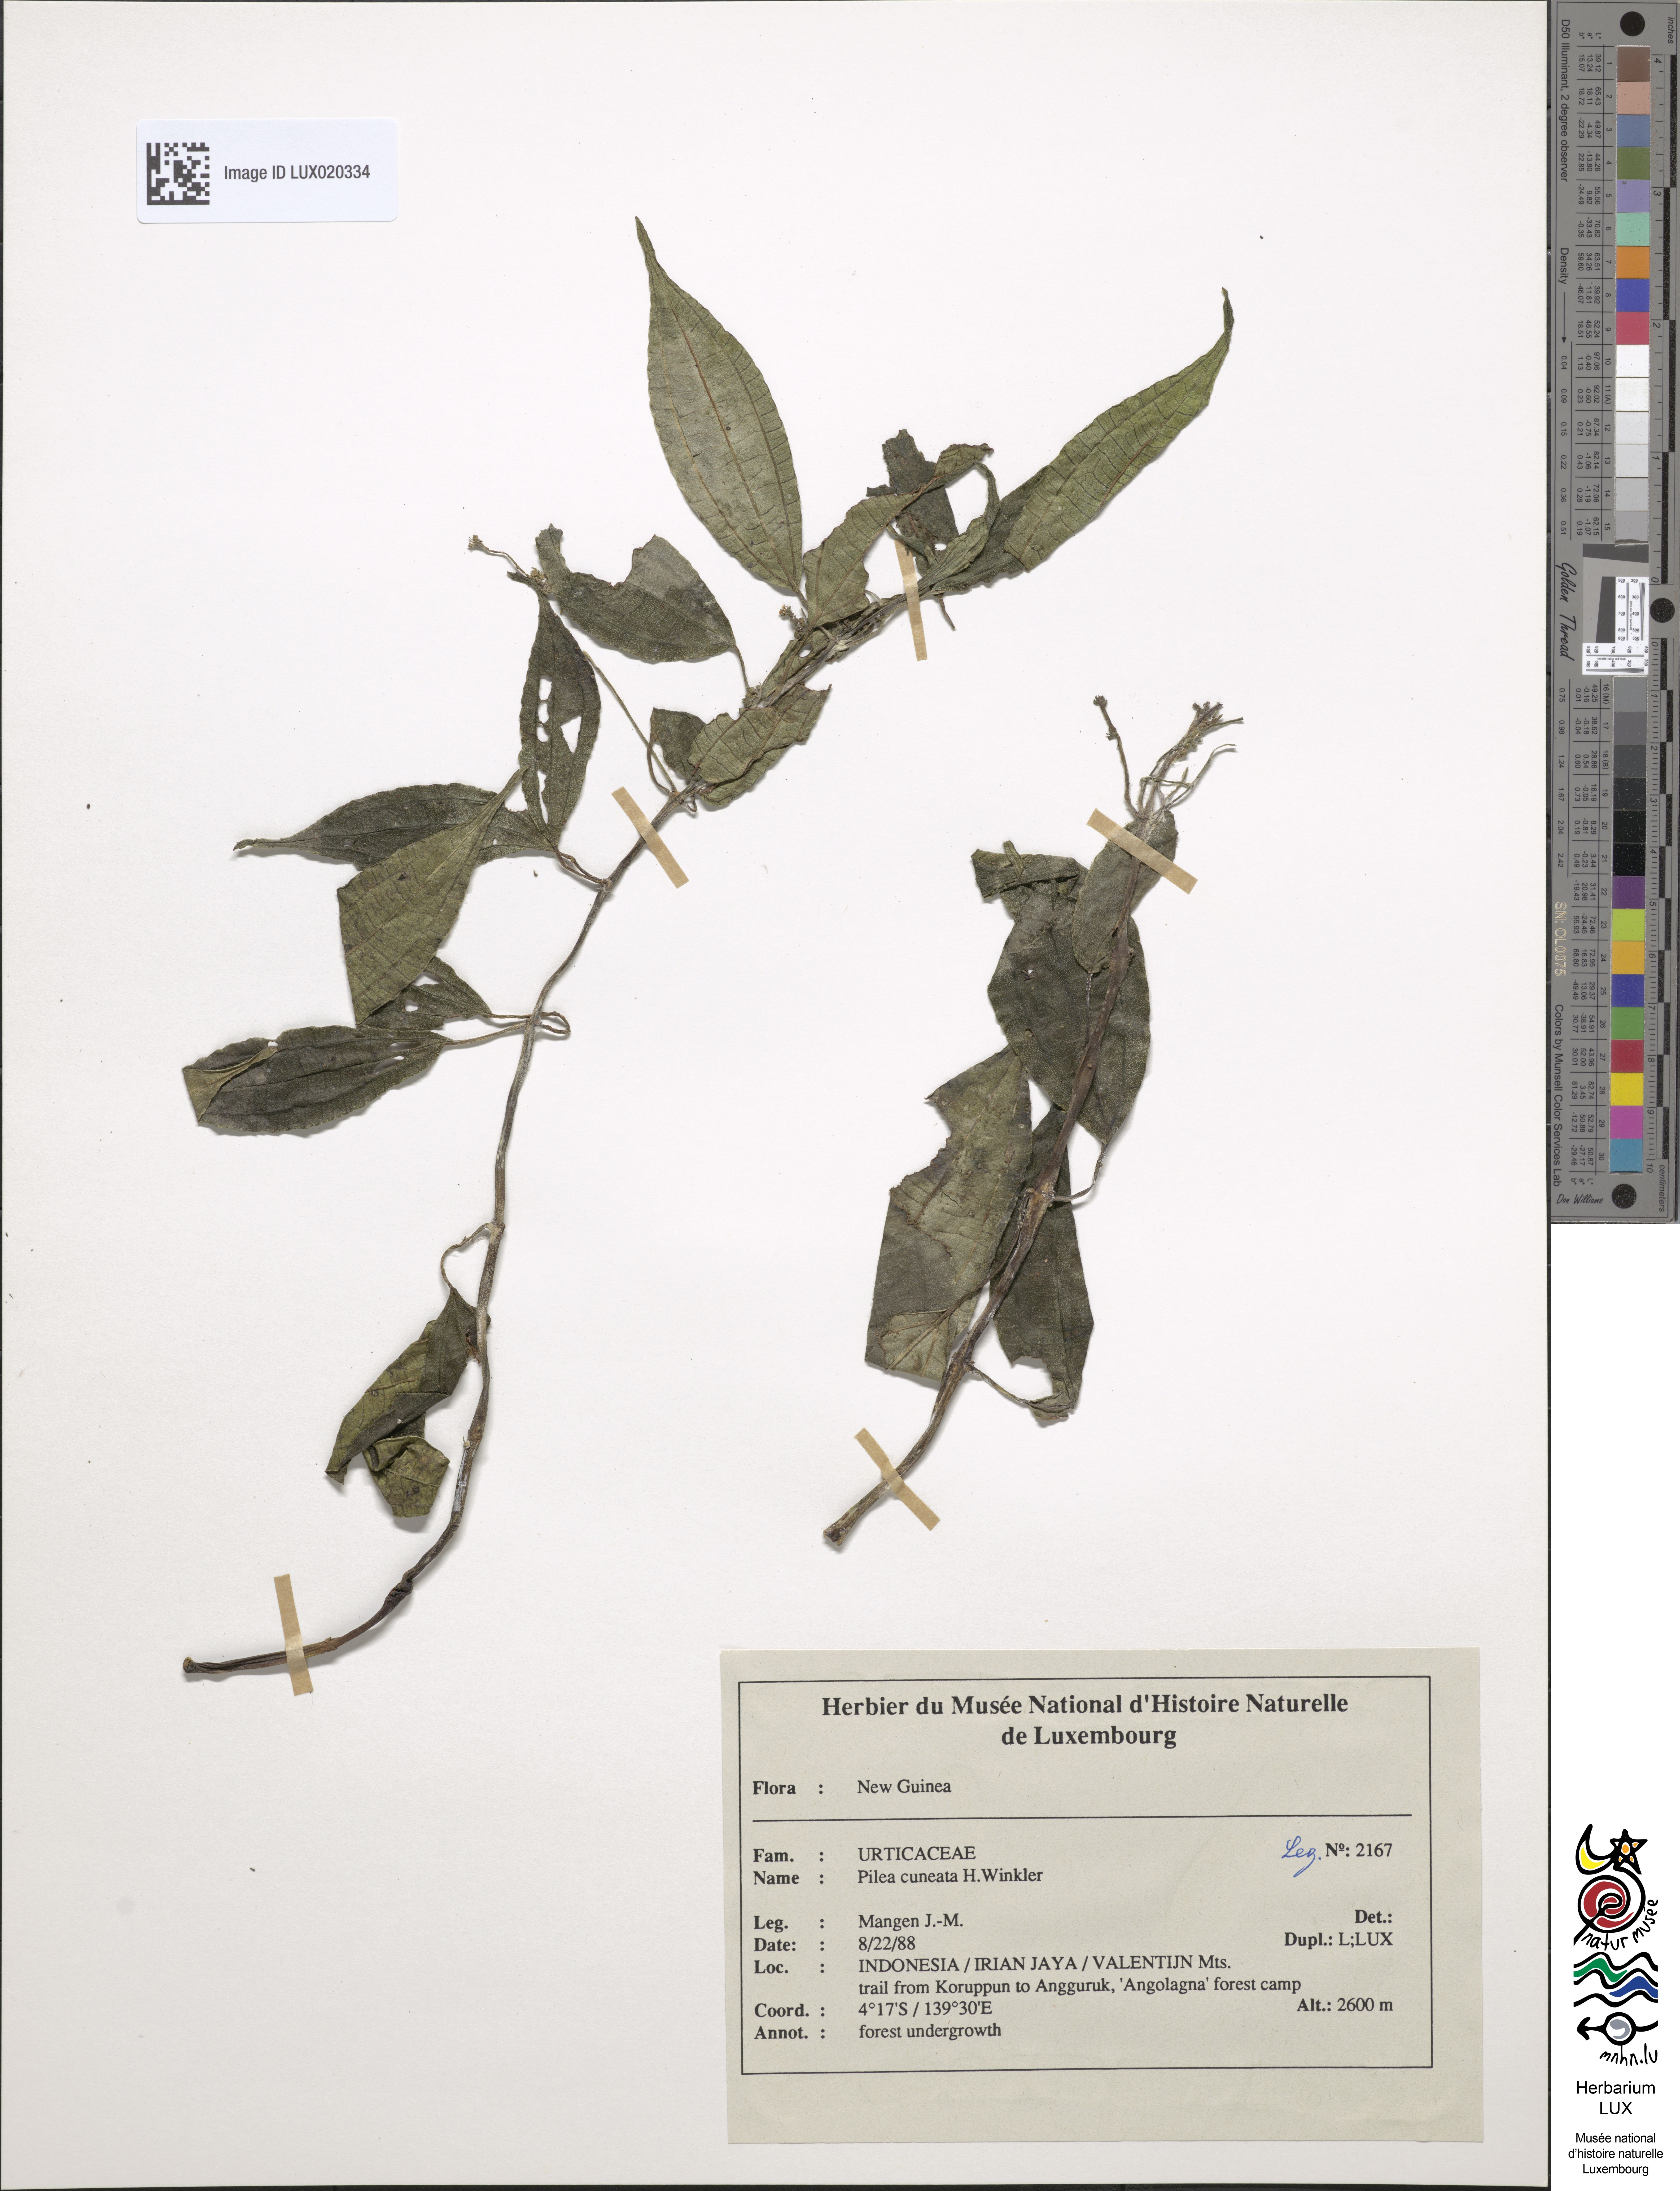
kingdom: Plantae
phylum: Tracheophyta
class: Magnoliopsida
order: Rosales
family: Urticaceae
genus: Pilea
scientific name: Pilea cuneata
